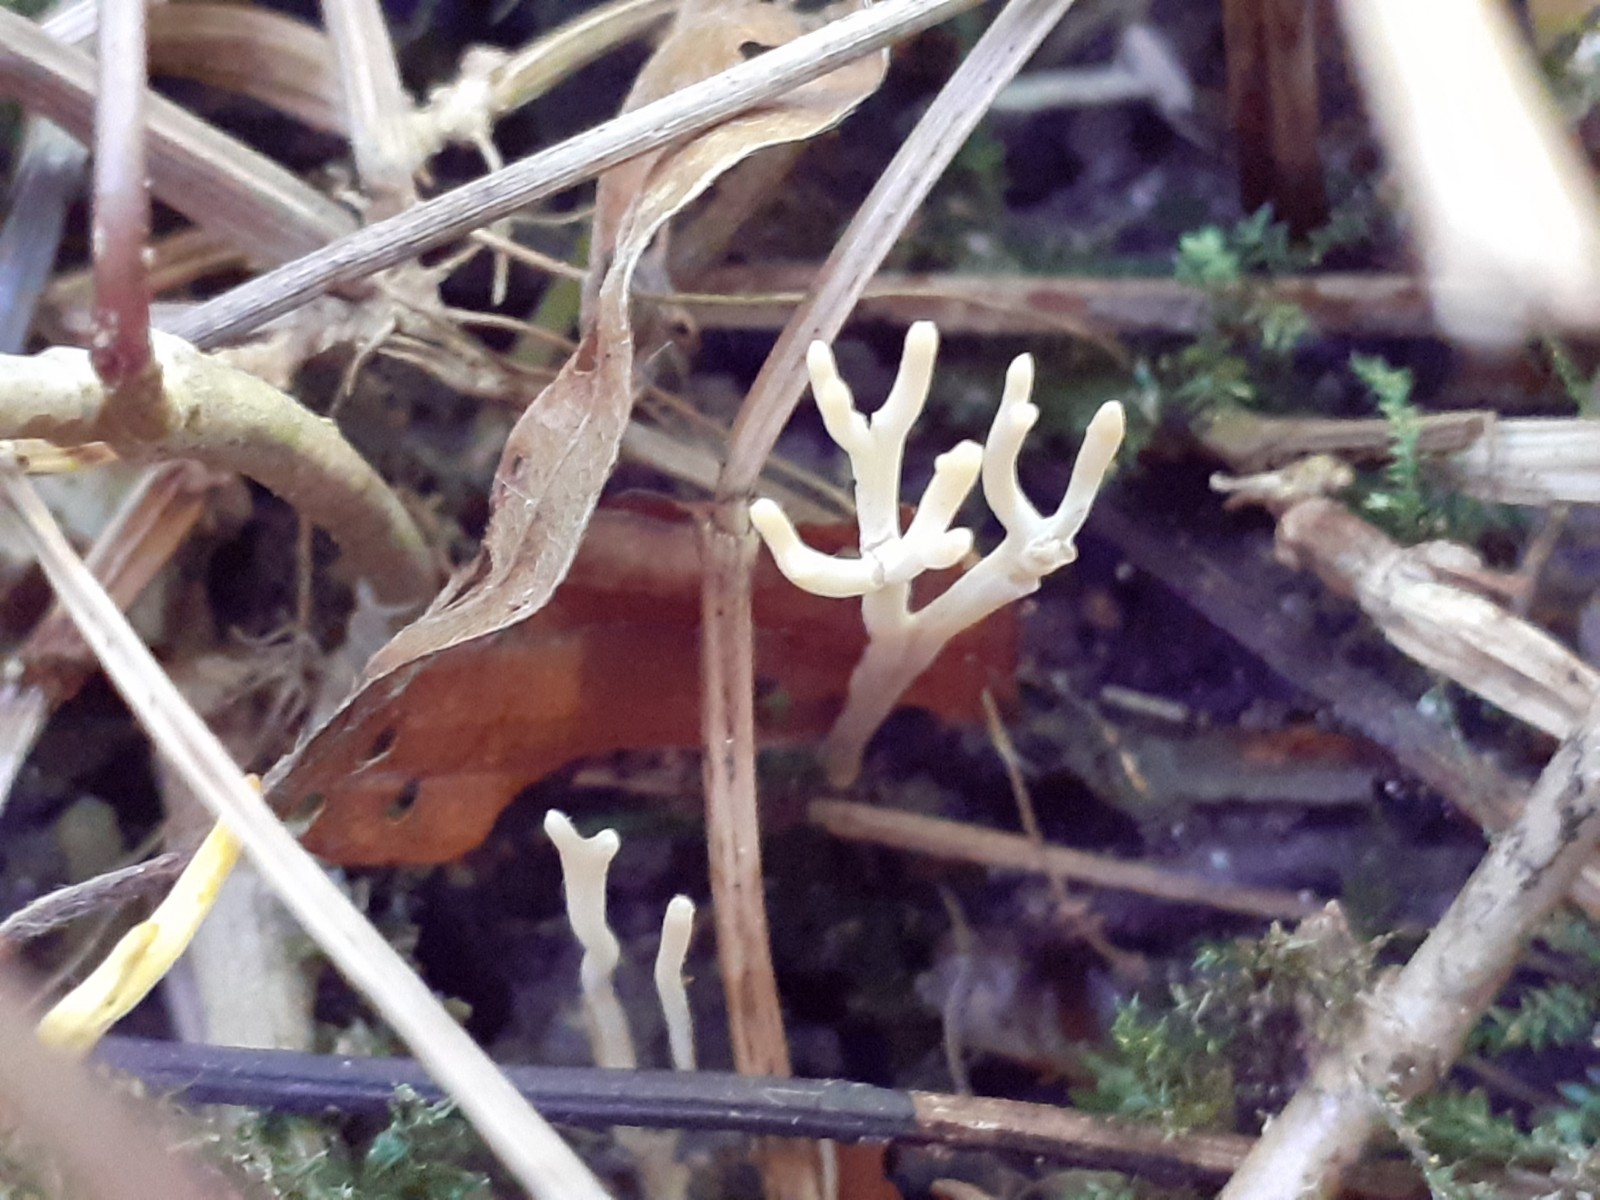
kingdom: Fungi
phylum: Basidiomycota
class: Agaricomycetes
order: Agaricales
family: Clavariaceae
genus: Ramariopsis
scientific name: Ramariopsis
